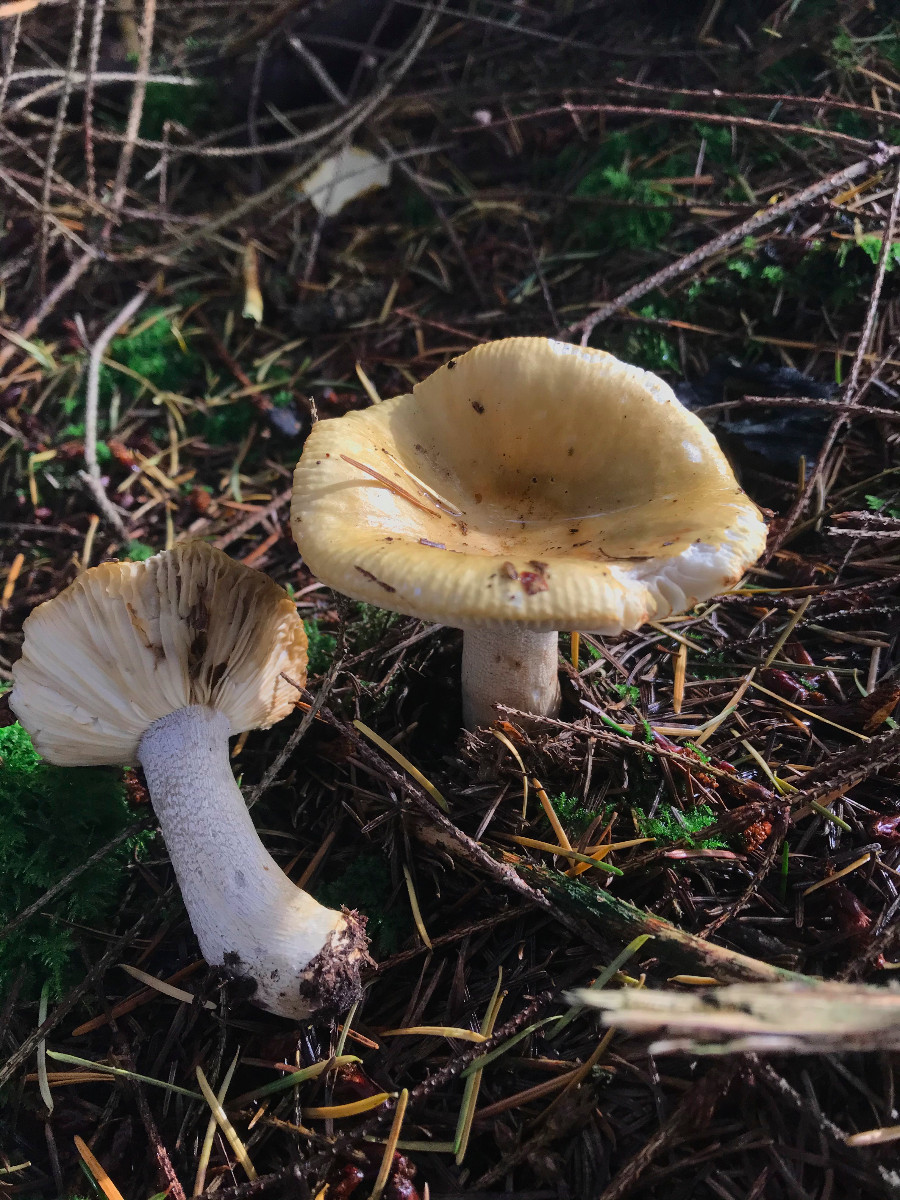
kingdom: Fungi
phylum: Basidiomycota
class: Agaricomycetes
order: Russulales
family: Russulaceae
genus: Russula
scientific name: Russula ochroleuca
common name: okkergul skørhat
